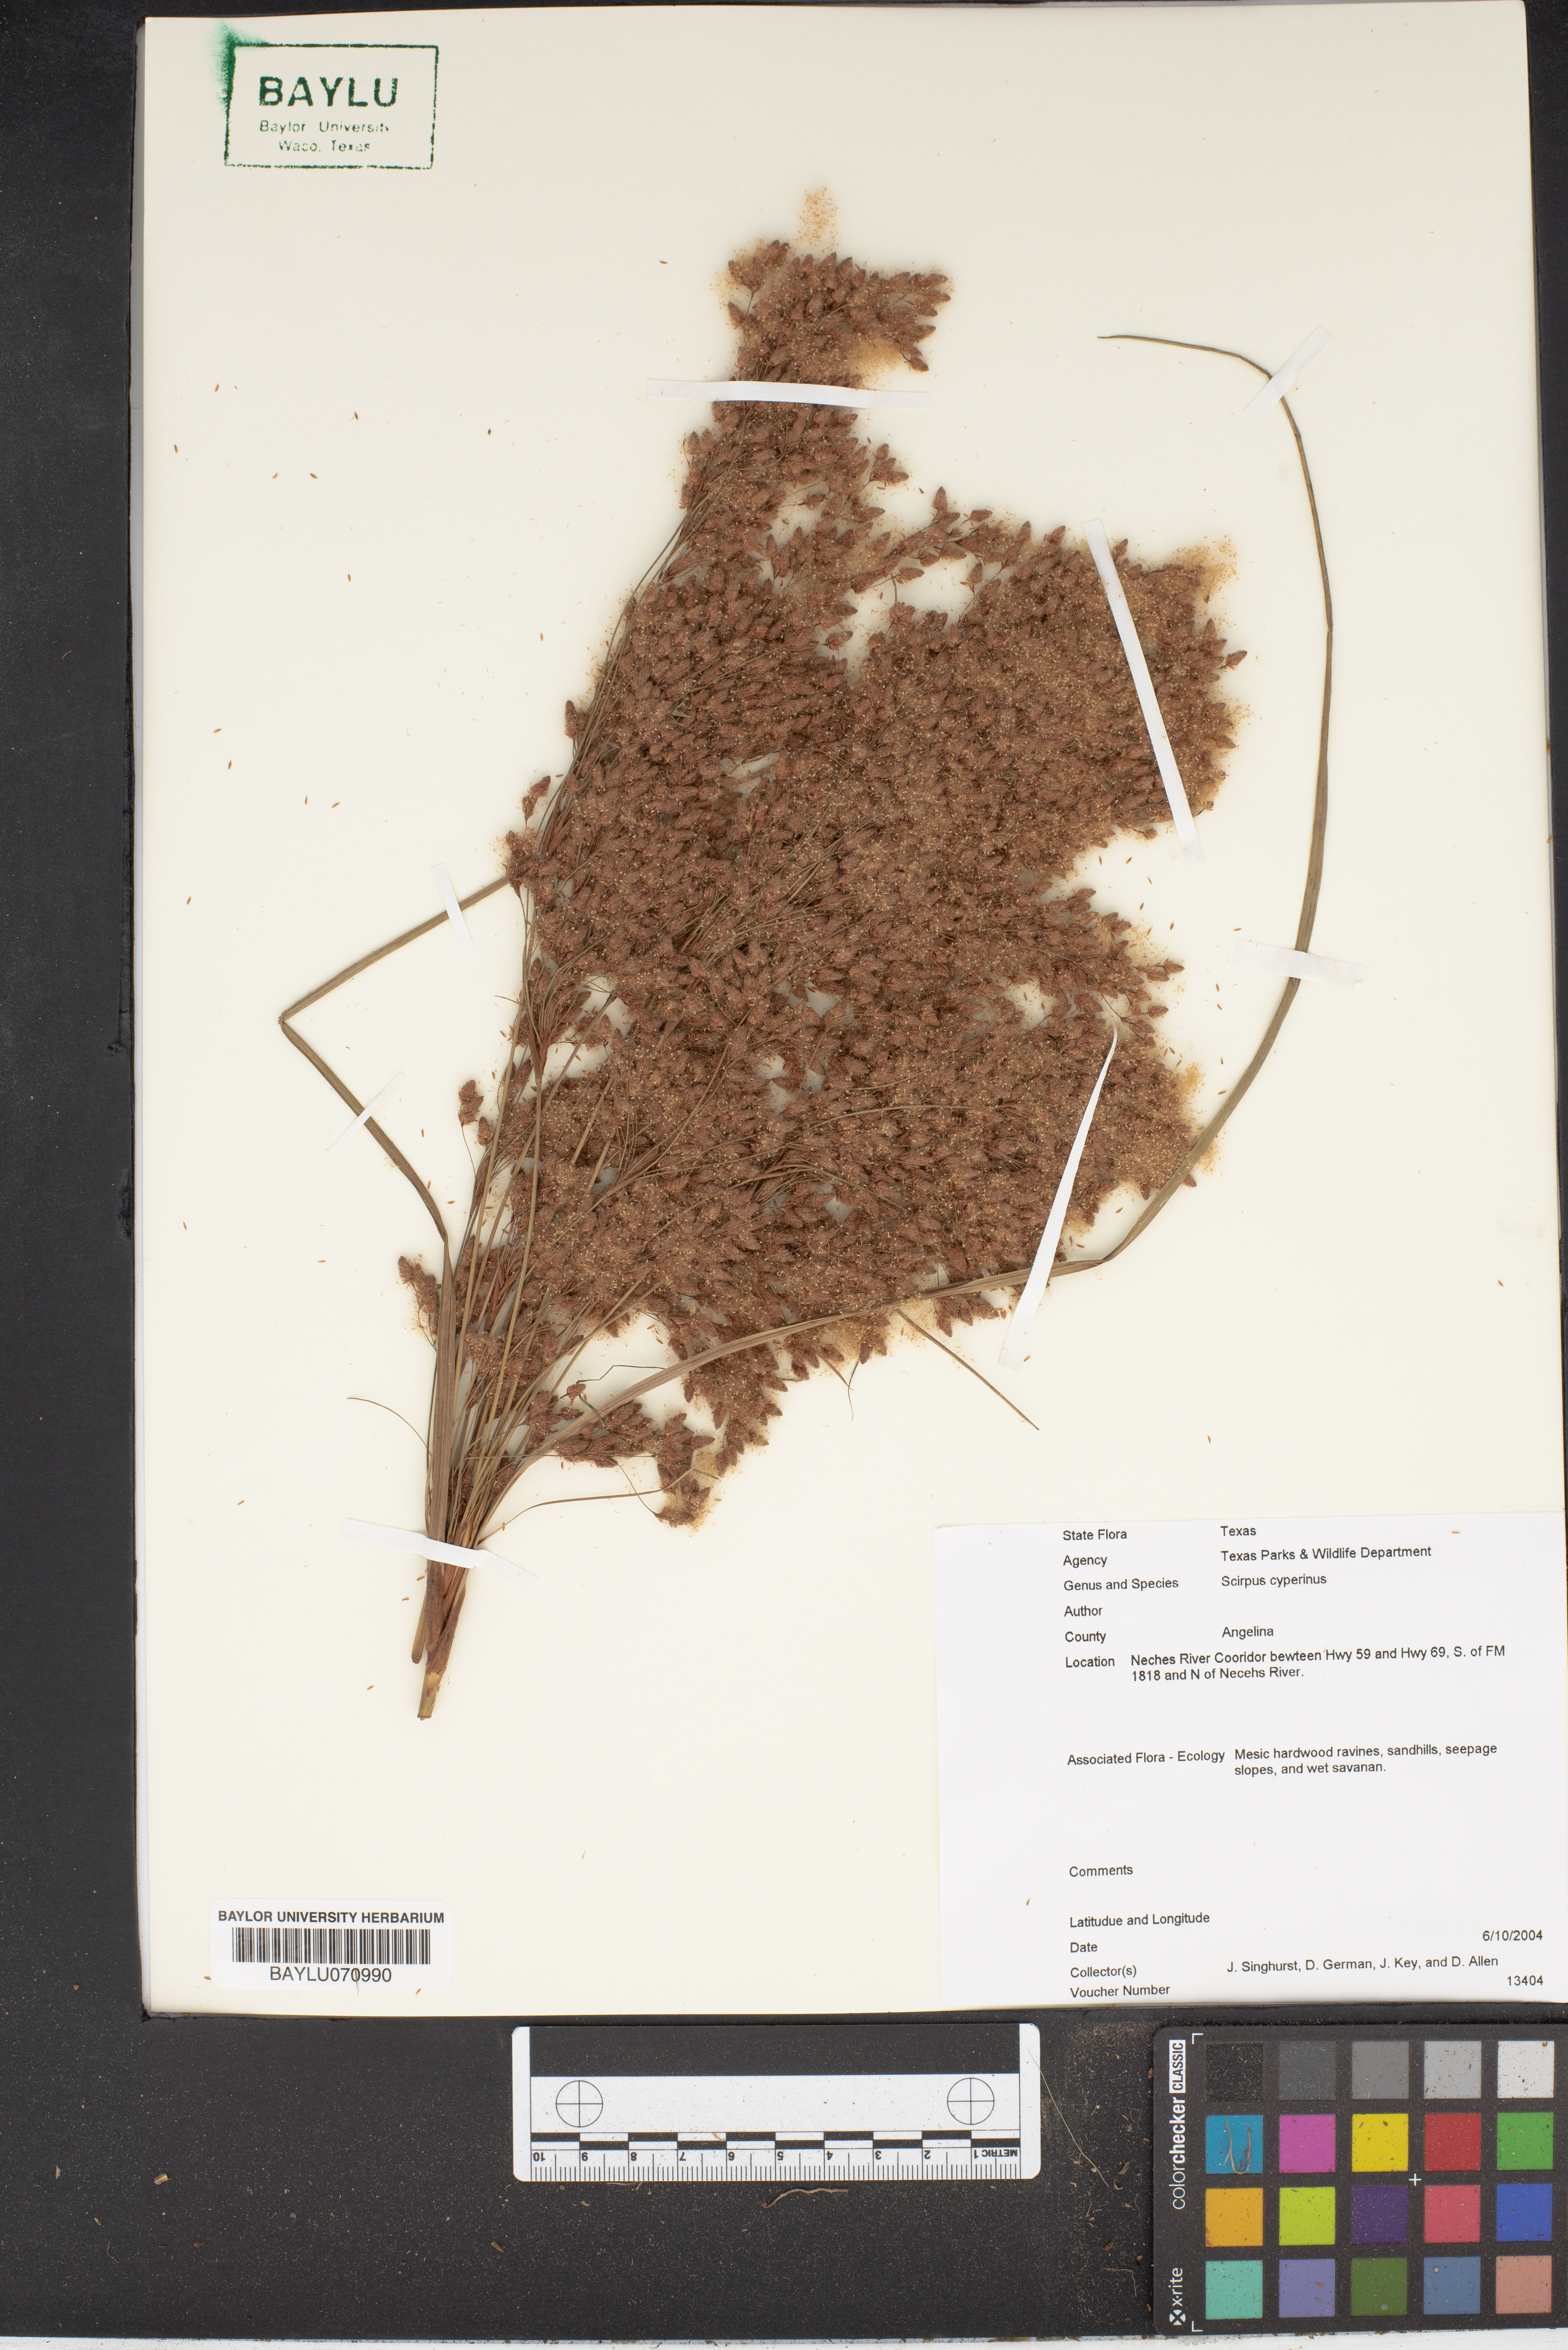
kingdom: Plantae
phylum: Tracheophyta
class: Liliopsida
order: Poales
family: Cyperaceae
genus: Scirpus
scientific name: Scirpus cyperinus
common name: Black-sheathed bulrush
